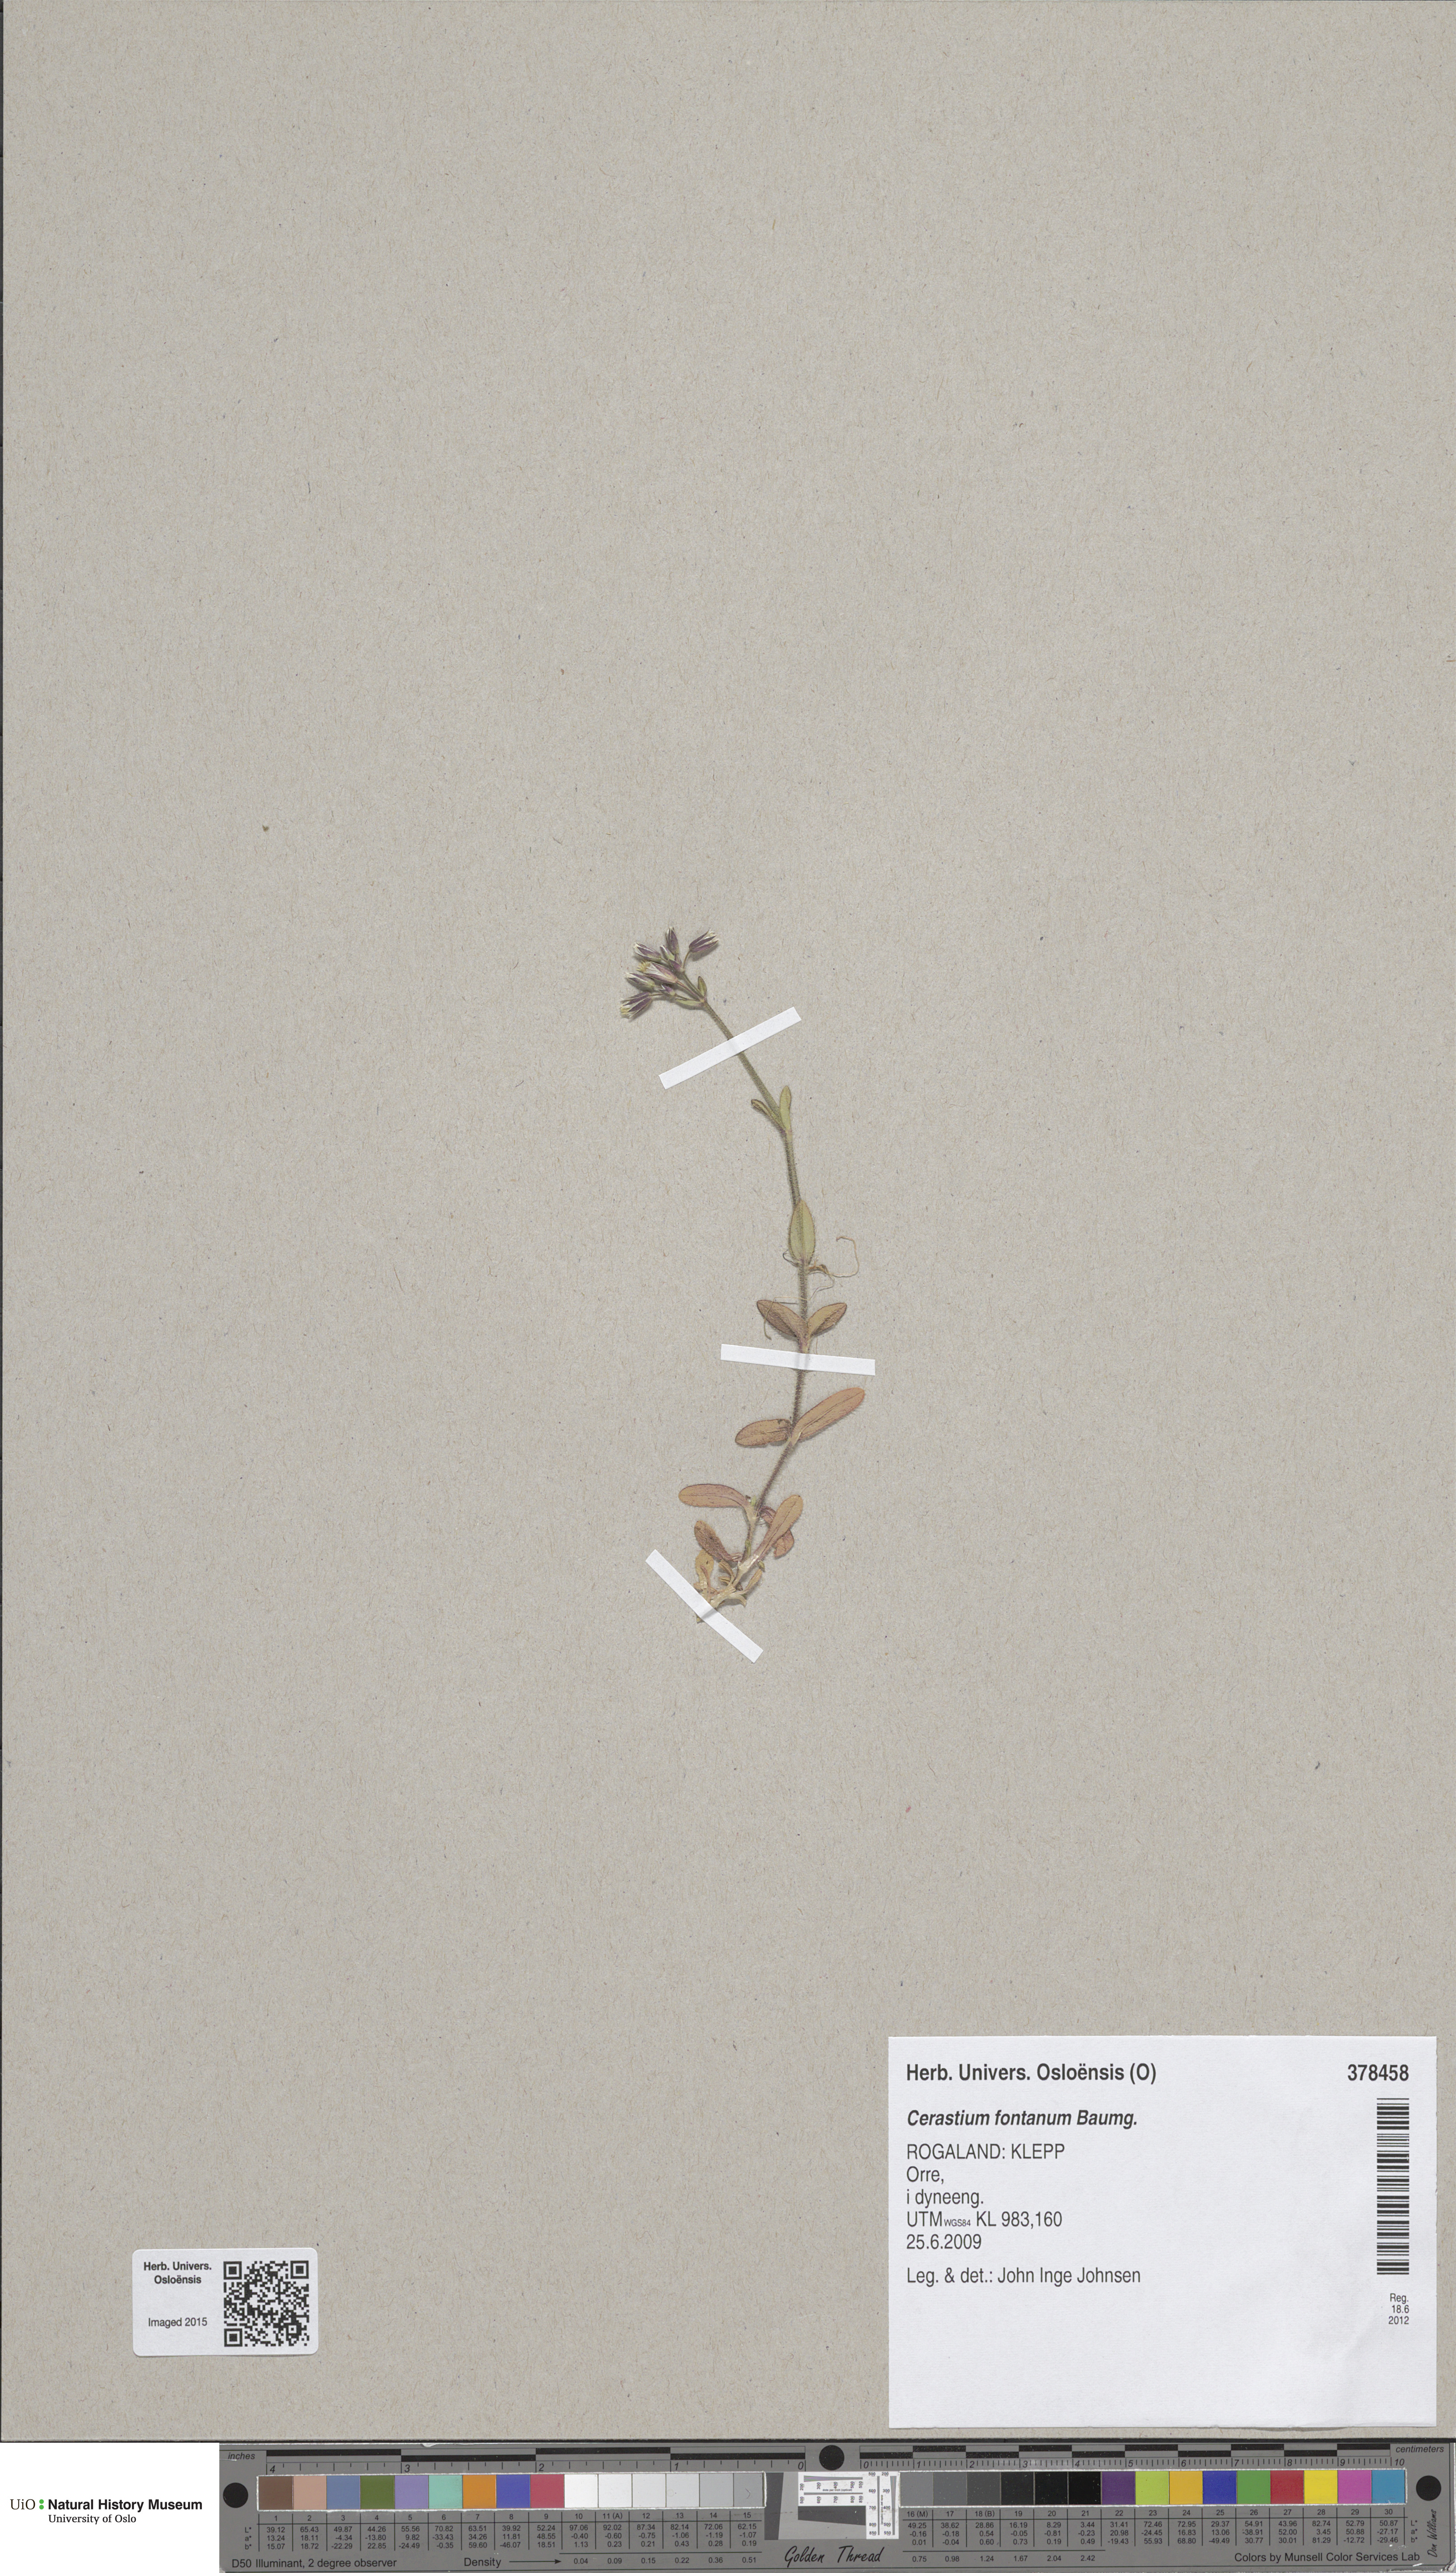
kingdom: Plantae
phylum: Tracheophyta
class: Magnoliopsida
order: Caryophyllales
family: Caryophyllaceae
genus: Cerastium
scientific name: Cerastium holosteoides
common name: Big chickweed
